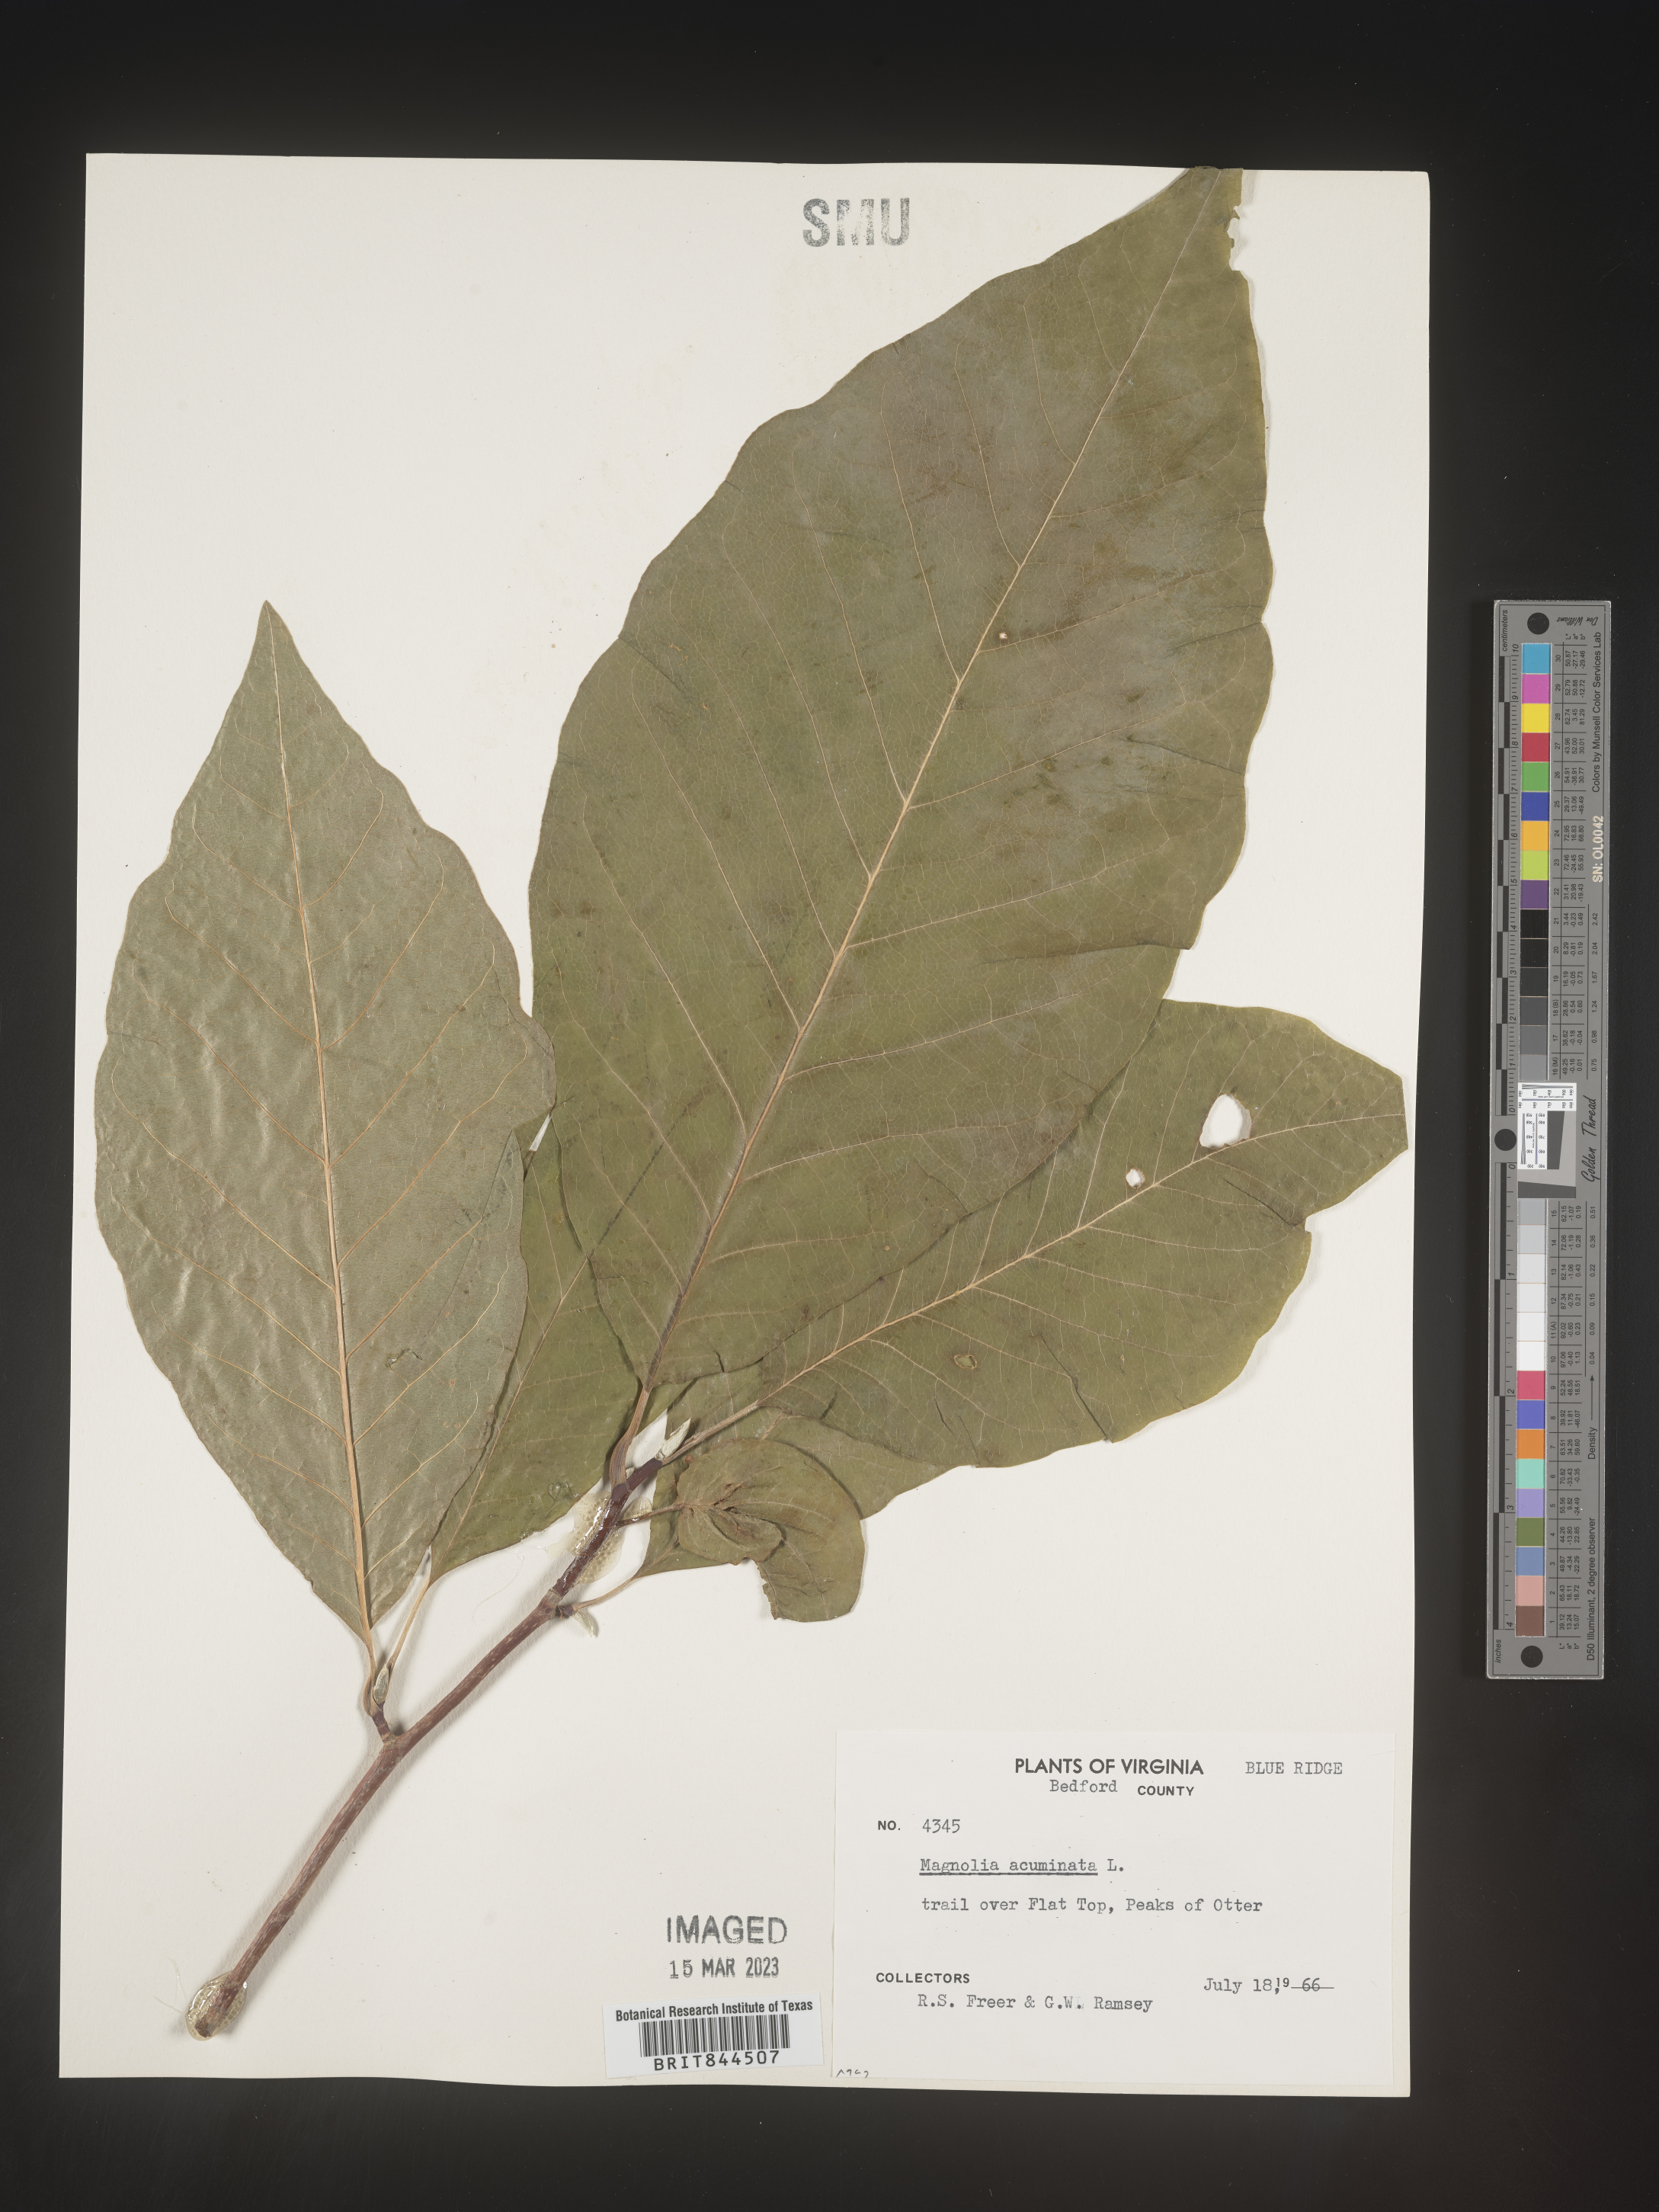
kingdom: Plantae
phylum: Tracheophyta
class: Magnoliopsida
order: Magnoliales
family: Magnoliaceae
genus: Magnolia
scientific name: Magnolia acuminata
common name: Cucumber magnolia
